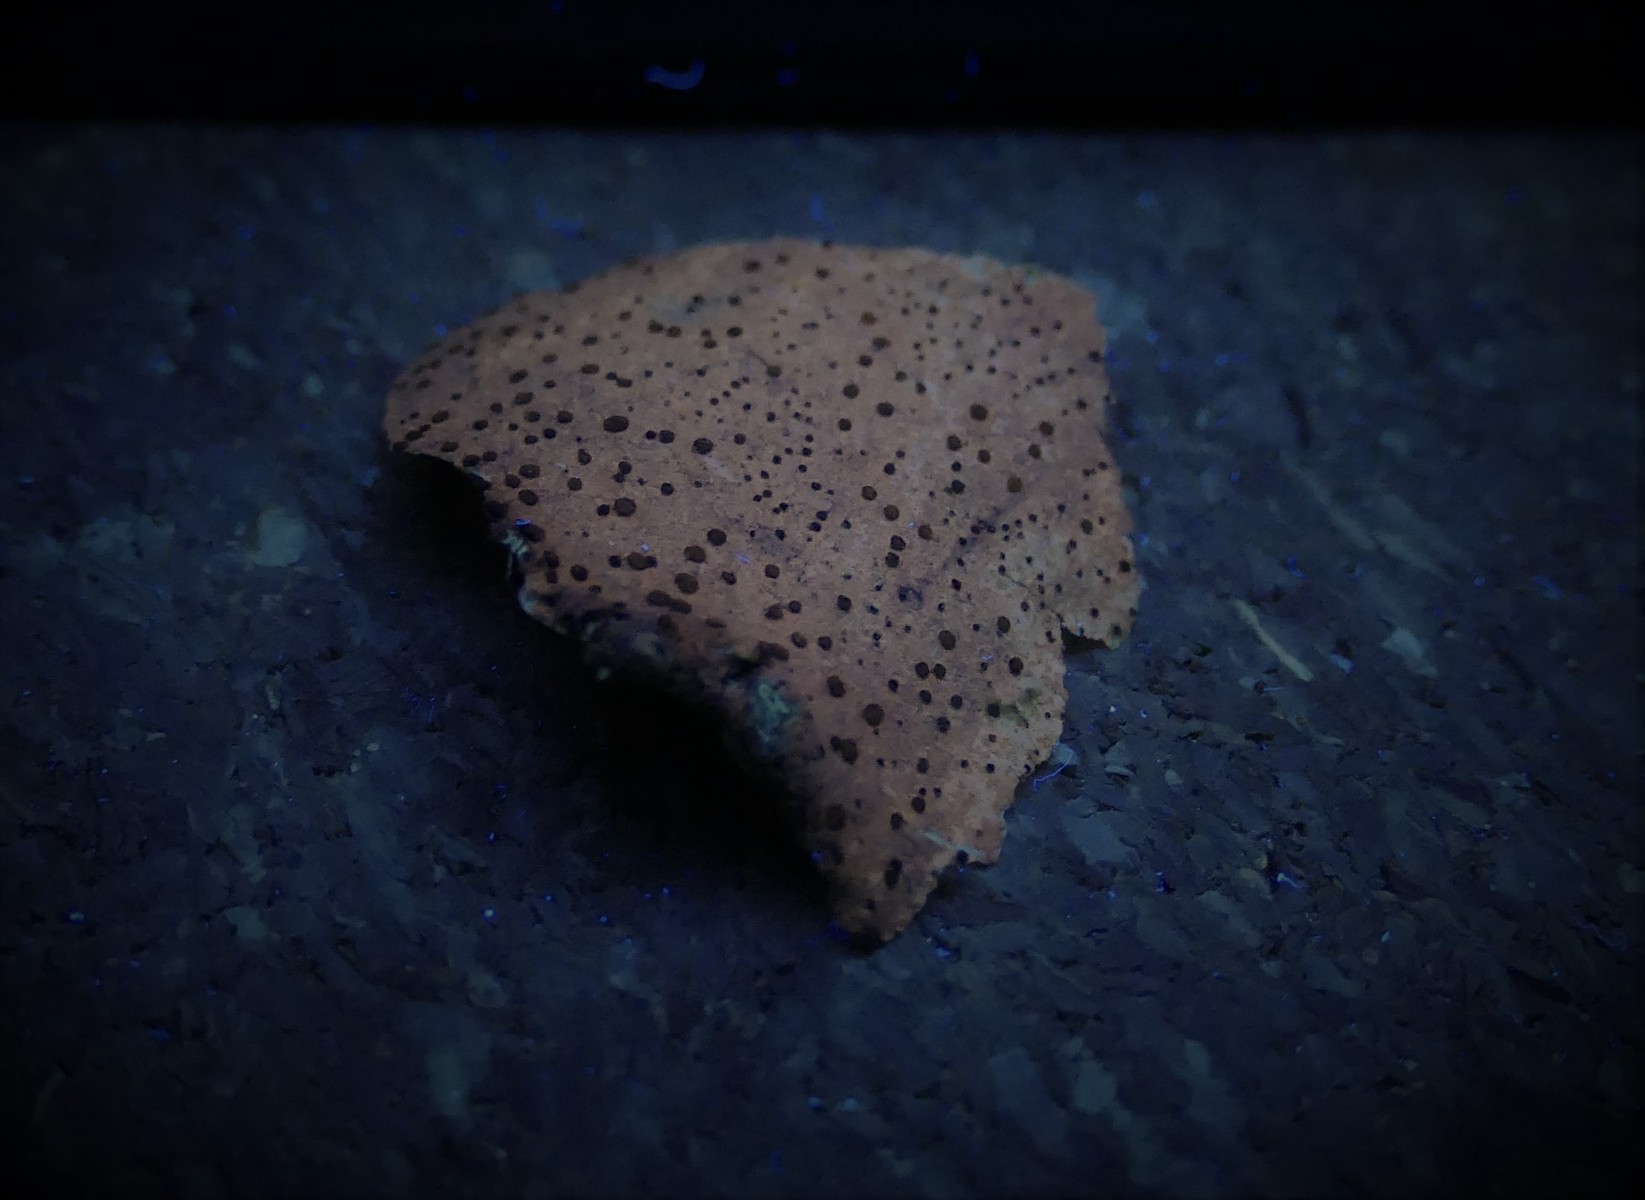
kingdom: Fungi
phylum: Ascomycota
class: Lecanoromycetes
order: Lecanorales
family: Lecanoraceae
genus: Lecidella
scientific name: Lecidella elaeochroma
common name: grågrøn skivelav
